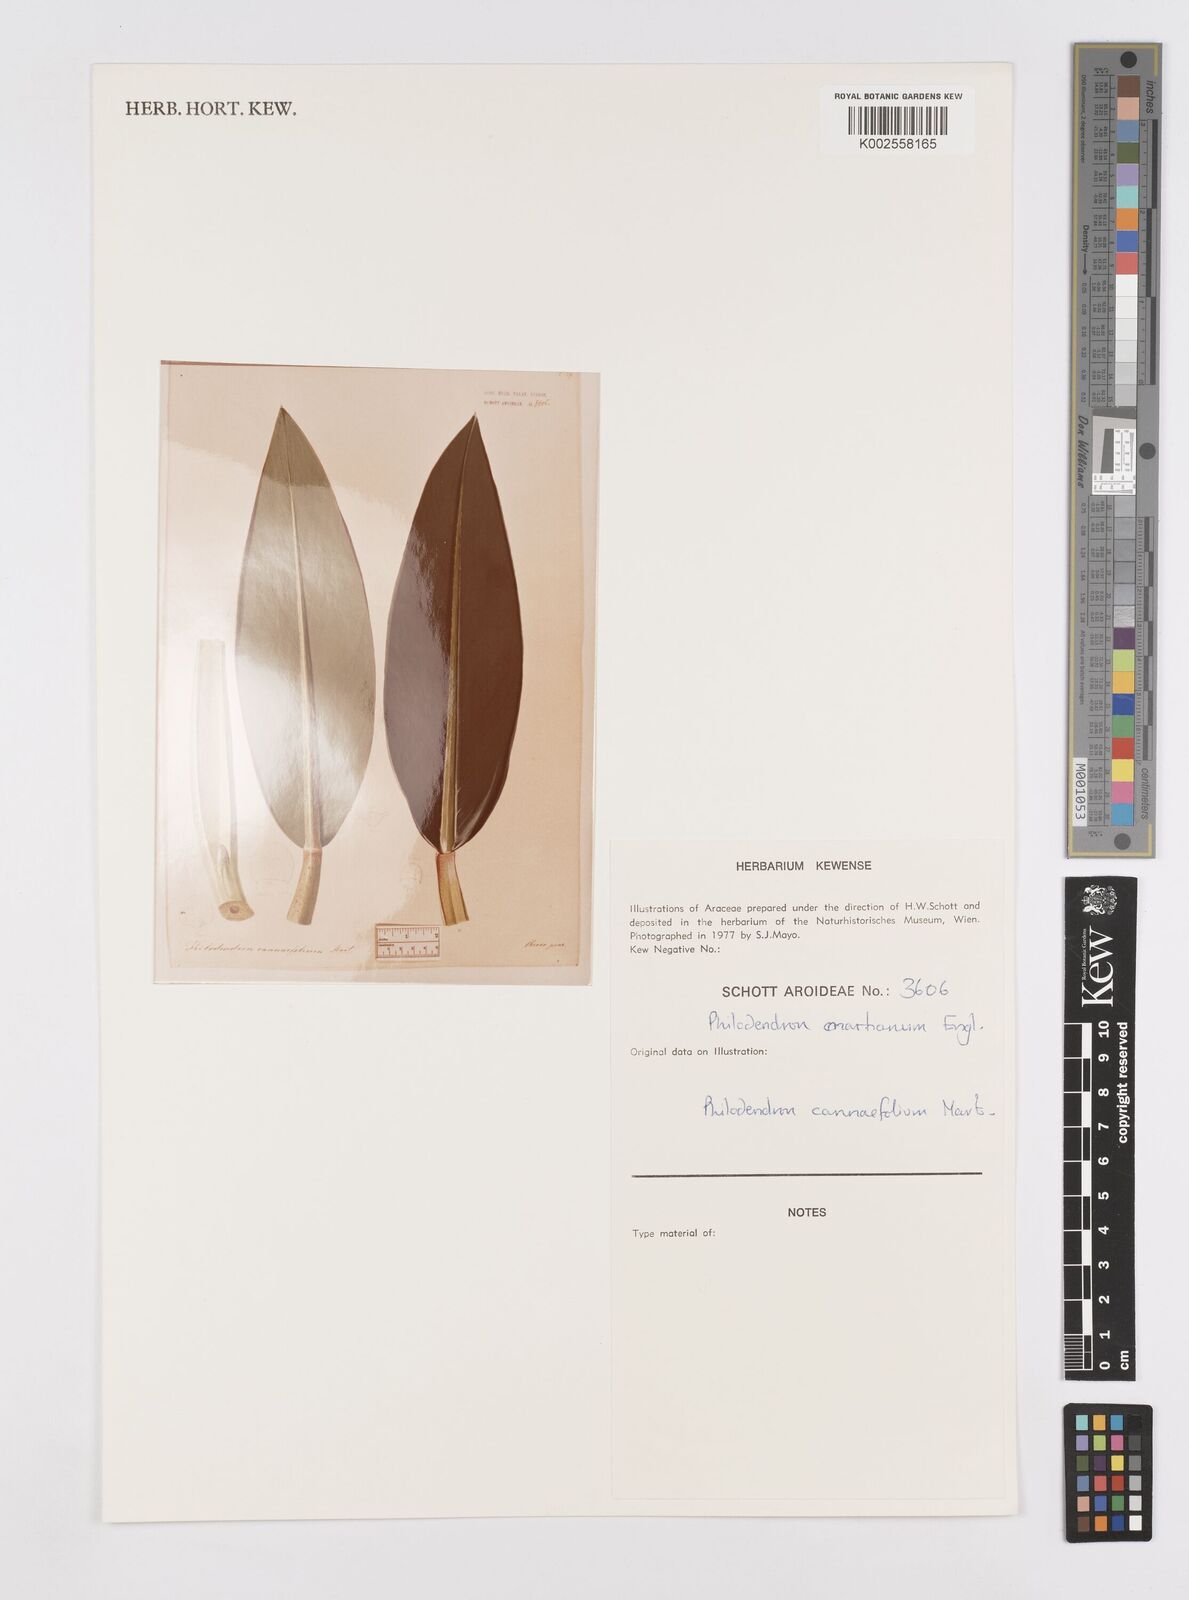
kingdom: Plantae
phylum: Tracheophyta
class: Liliopsida
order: Alismatales
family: Araceae
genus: Philodendron
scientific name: Philodendron martianum
